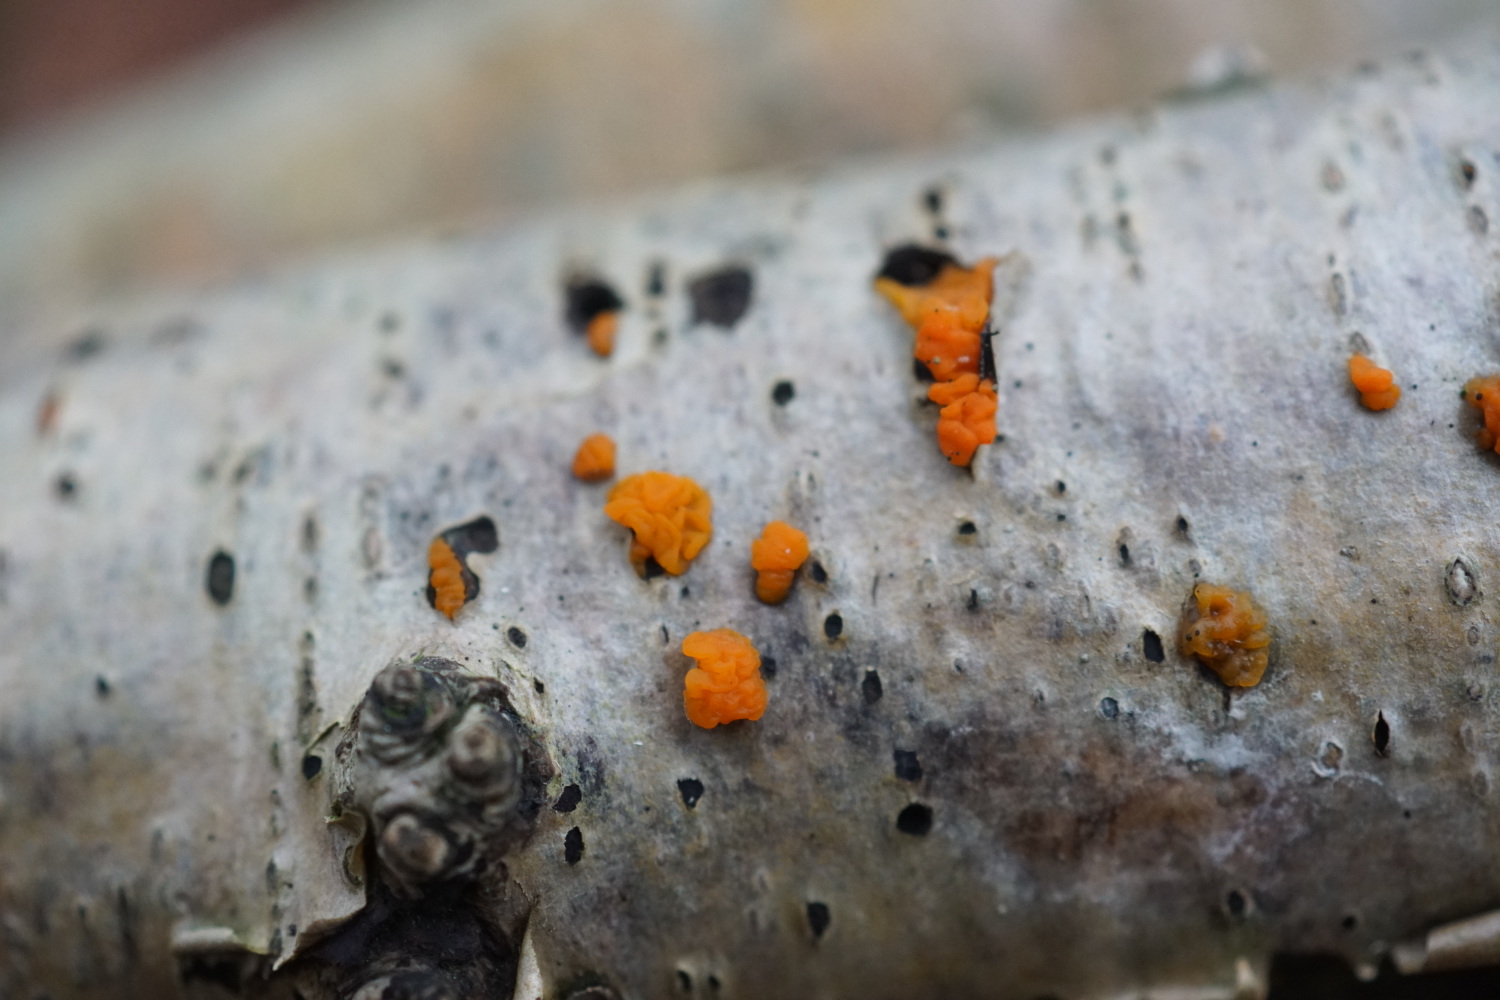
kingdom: Fungi
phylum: Basidiomycota
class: Dacrymycetes
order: Dacrymycetales
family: Dacrymycetaceae
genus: Dacrymyces
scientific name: Dacrymyces lacrymalis
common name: rynket tåresvamp
